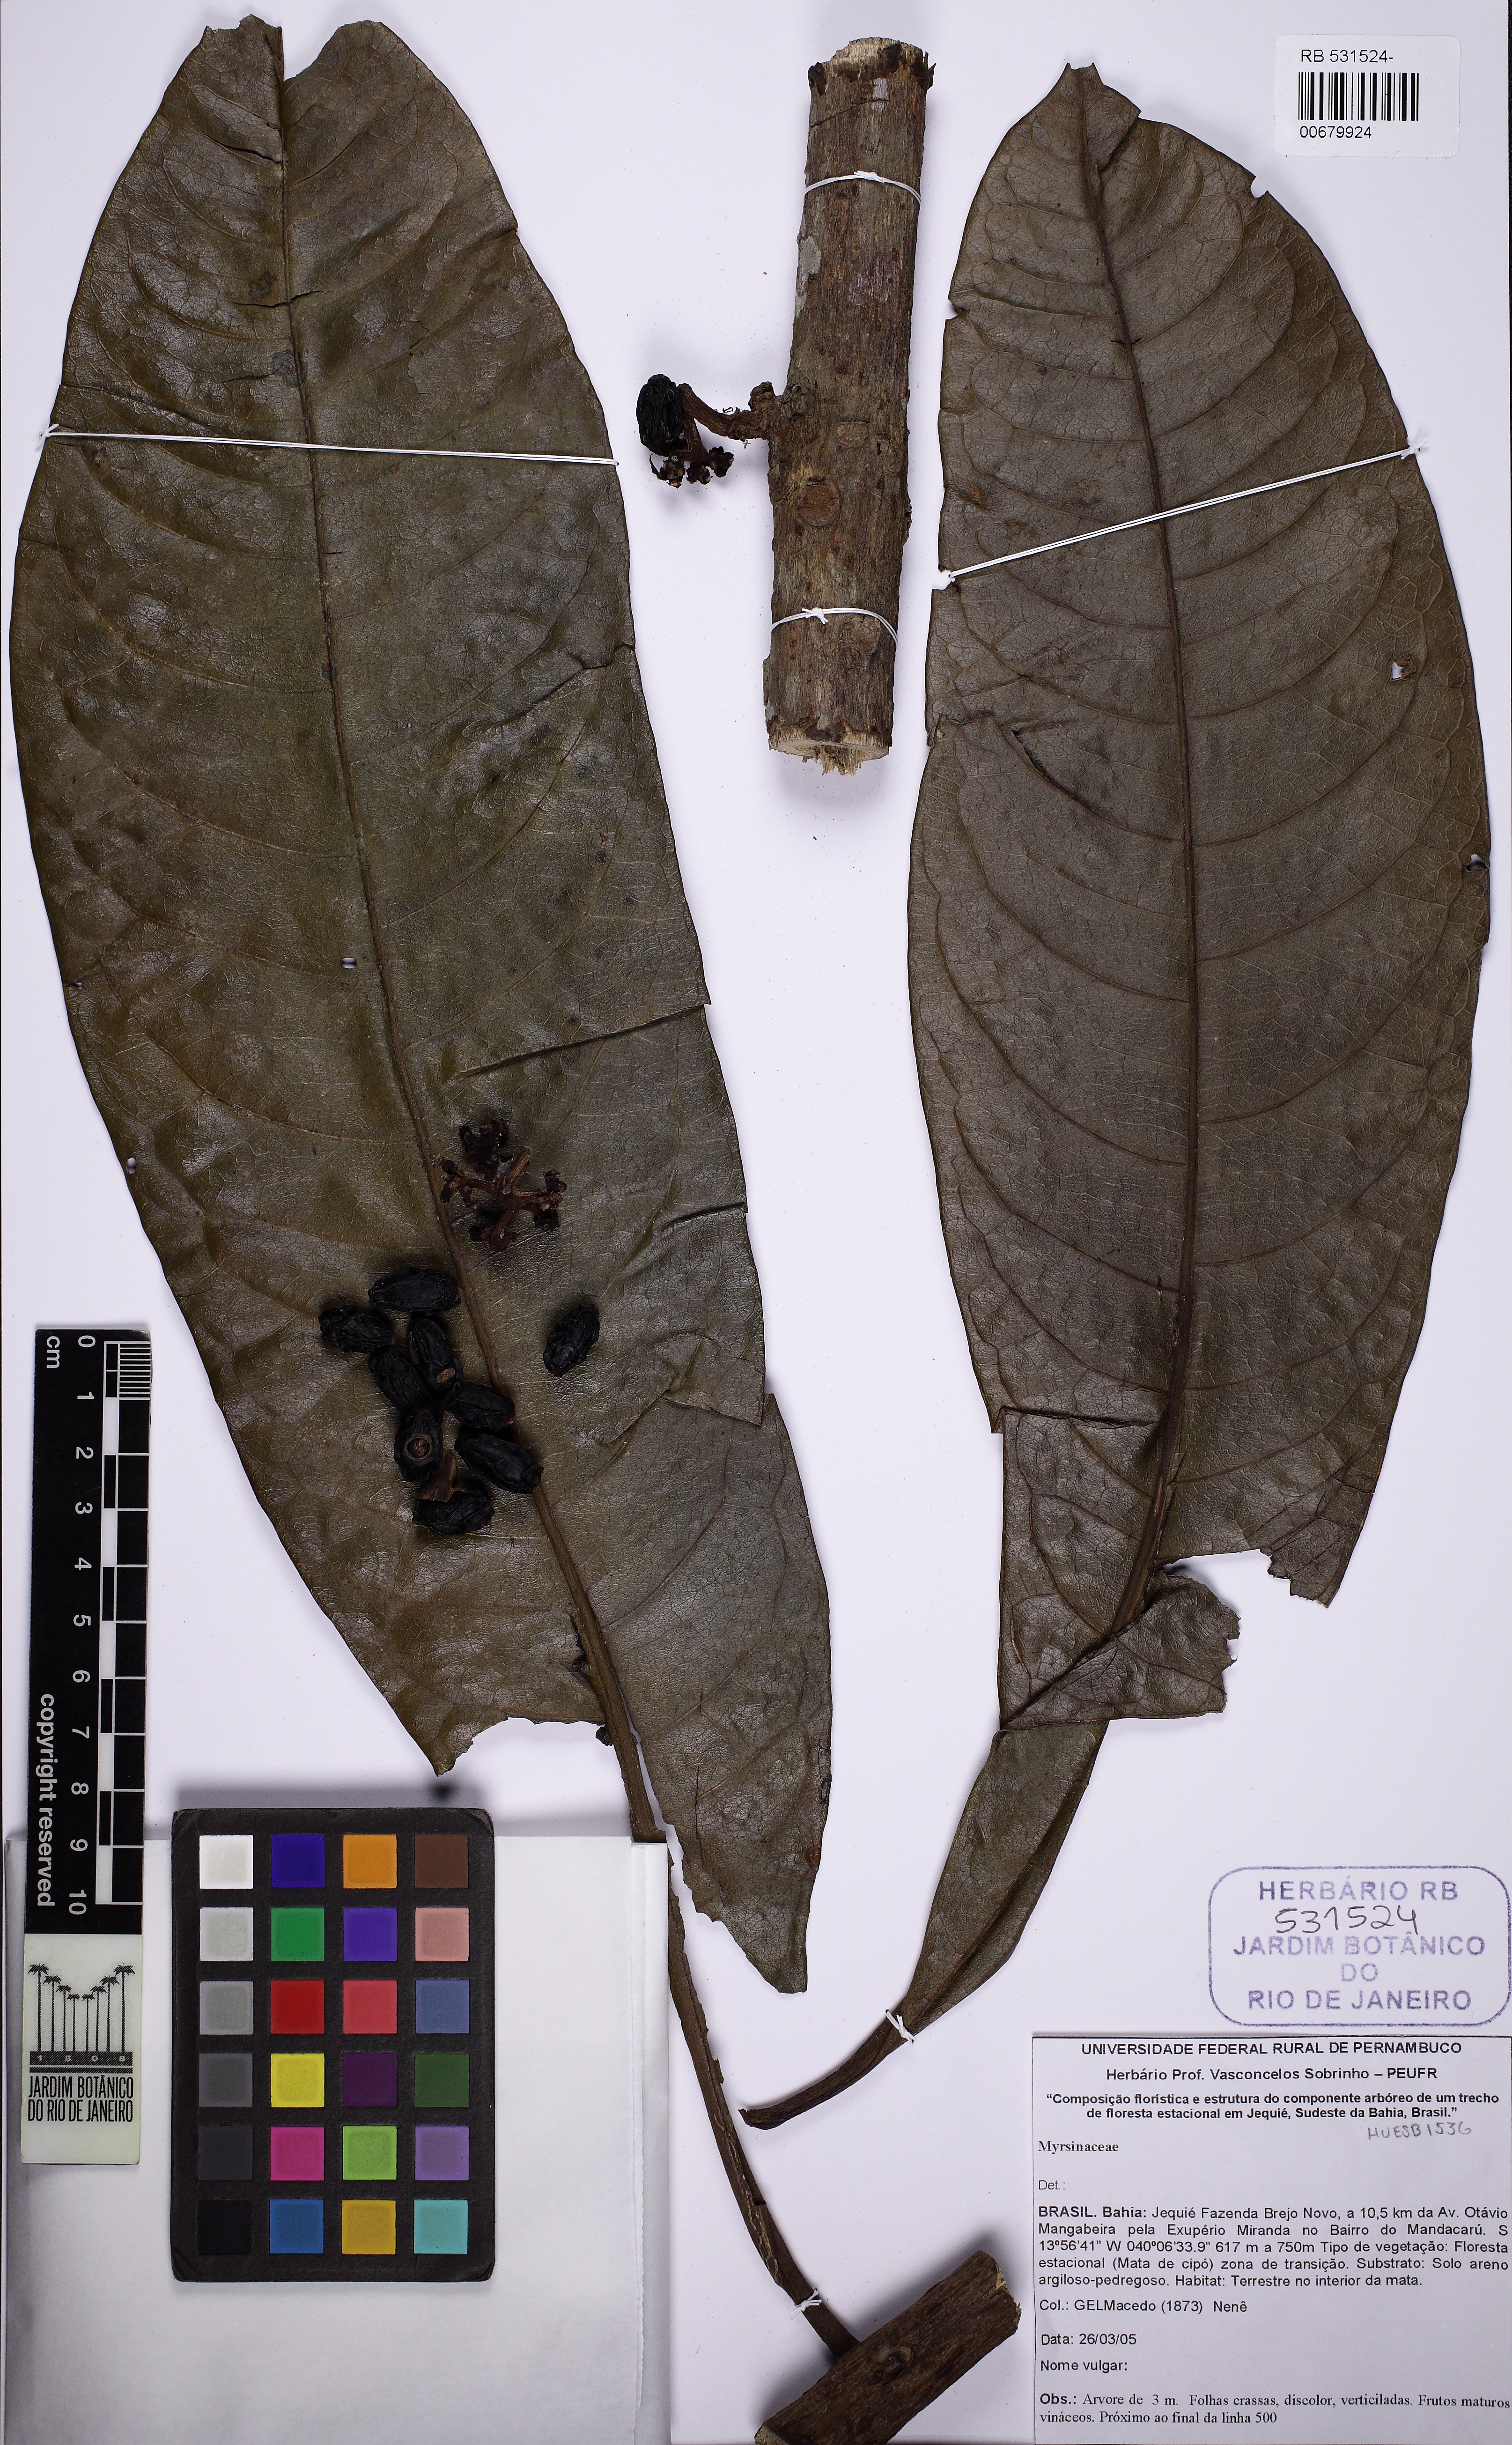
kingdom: Plantae
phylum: Tracheophyta
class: Magnoliopsida
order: Ericales
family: Primulaceae
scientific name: Primulaceae
